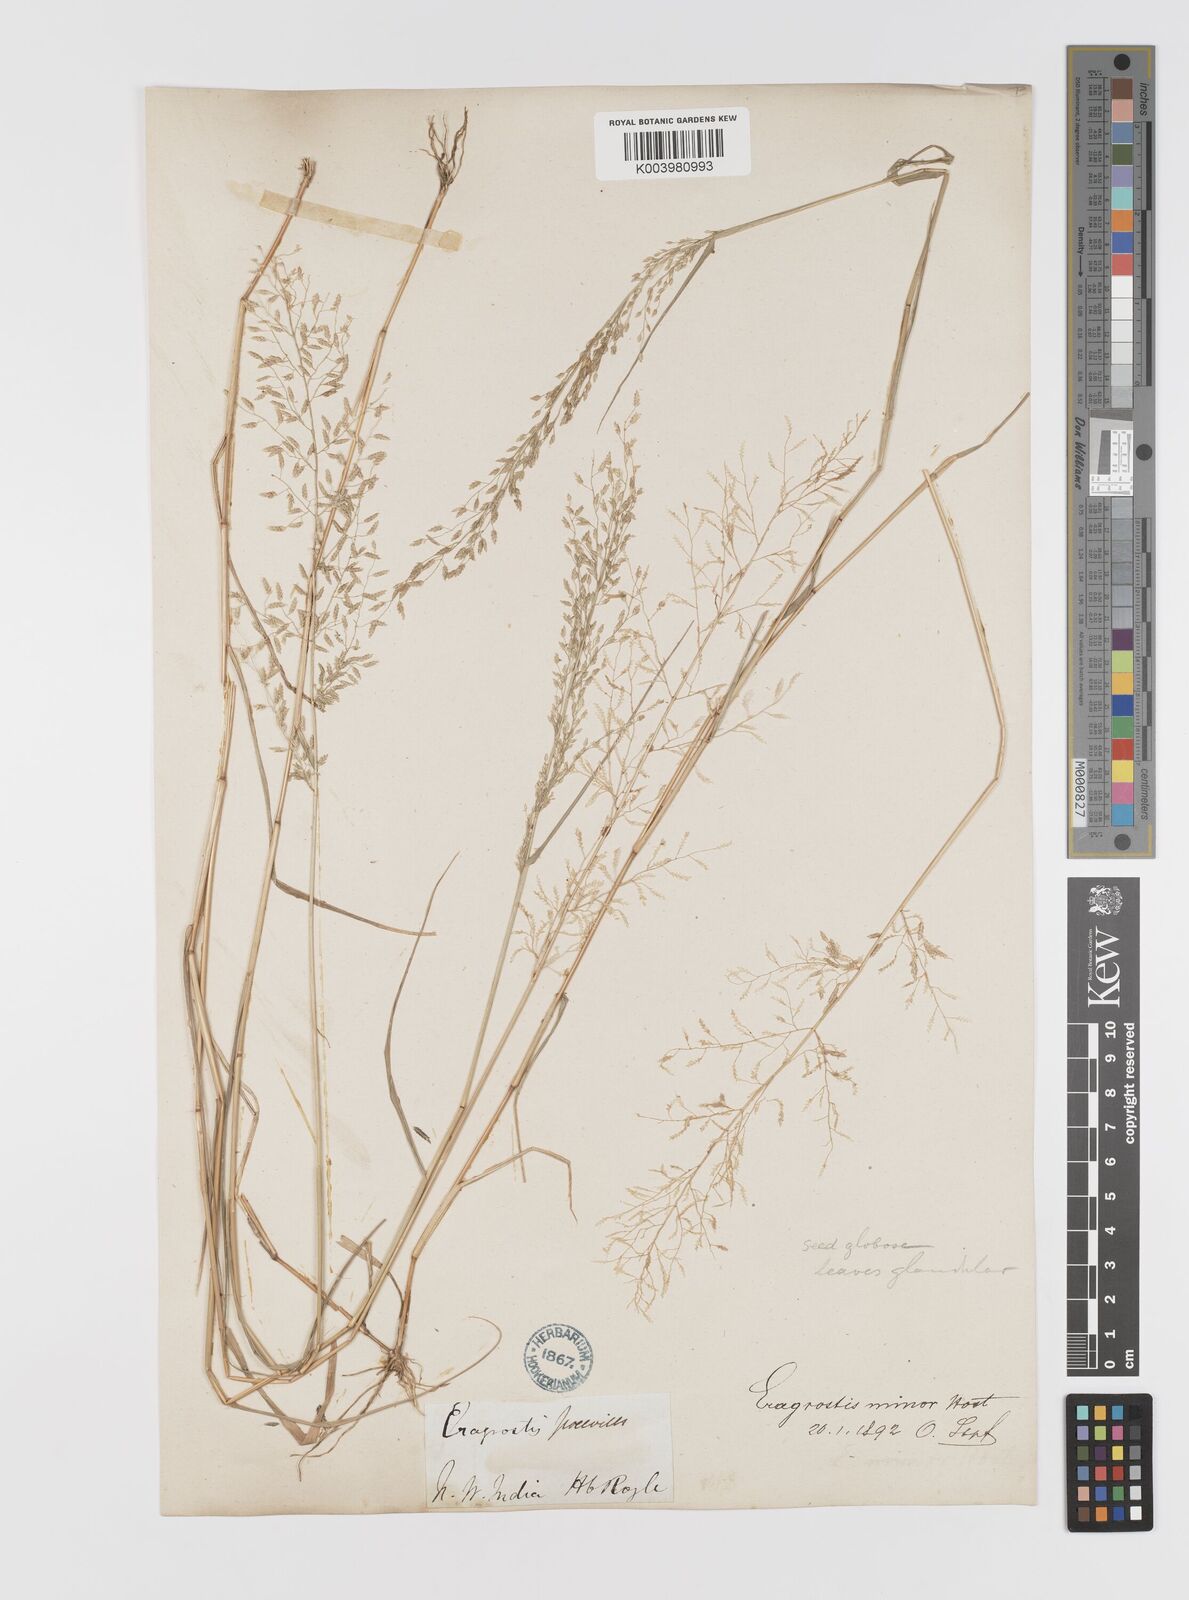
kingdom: Plantae
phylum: Tracheophyta
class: Liliopsida
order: Poales
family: Poaceae
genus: Eragrostis
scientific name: Eragrostis minor
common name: Small love-grass
